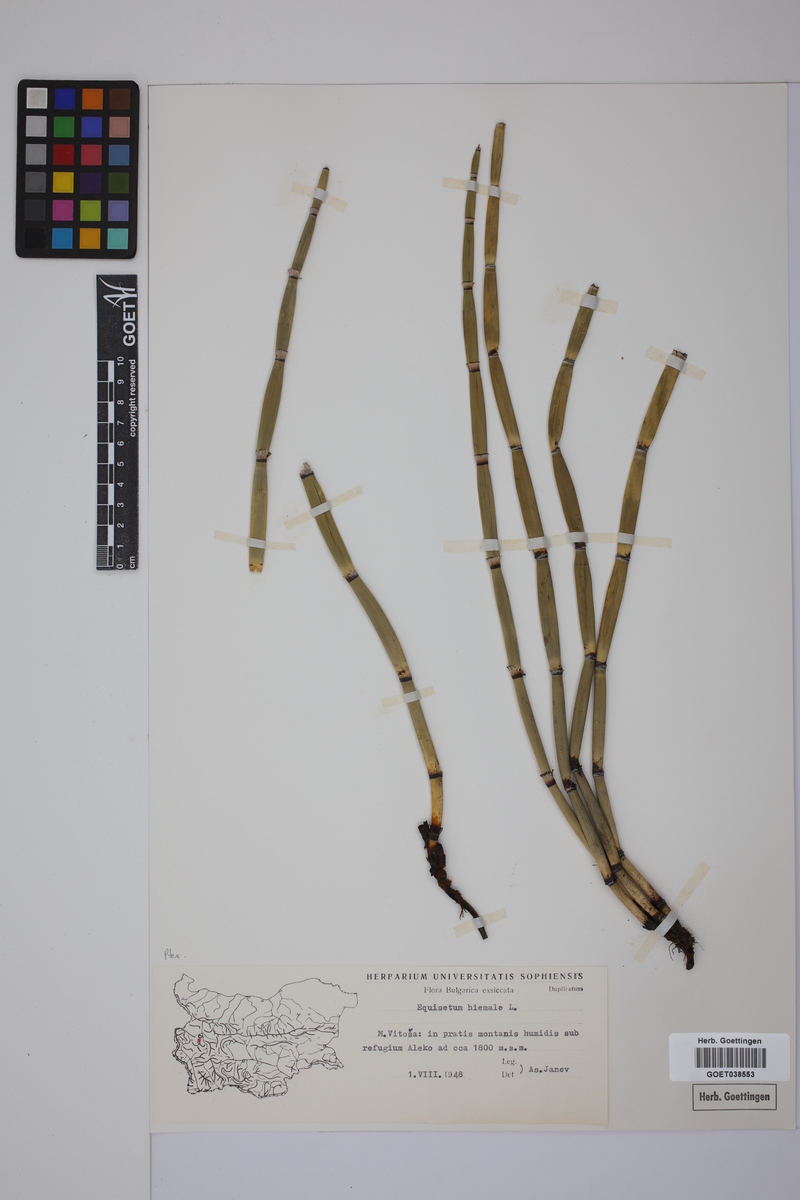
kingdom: Plantae
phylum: Tracheophyta
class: Polypodiopsida
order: Equisetales
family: Equisetaceae
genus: Equisetum
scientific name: Equisetum hyemale
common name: Rough horsetail
